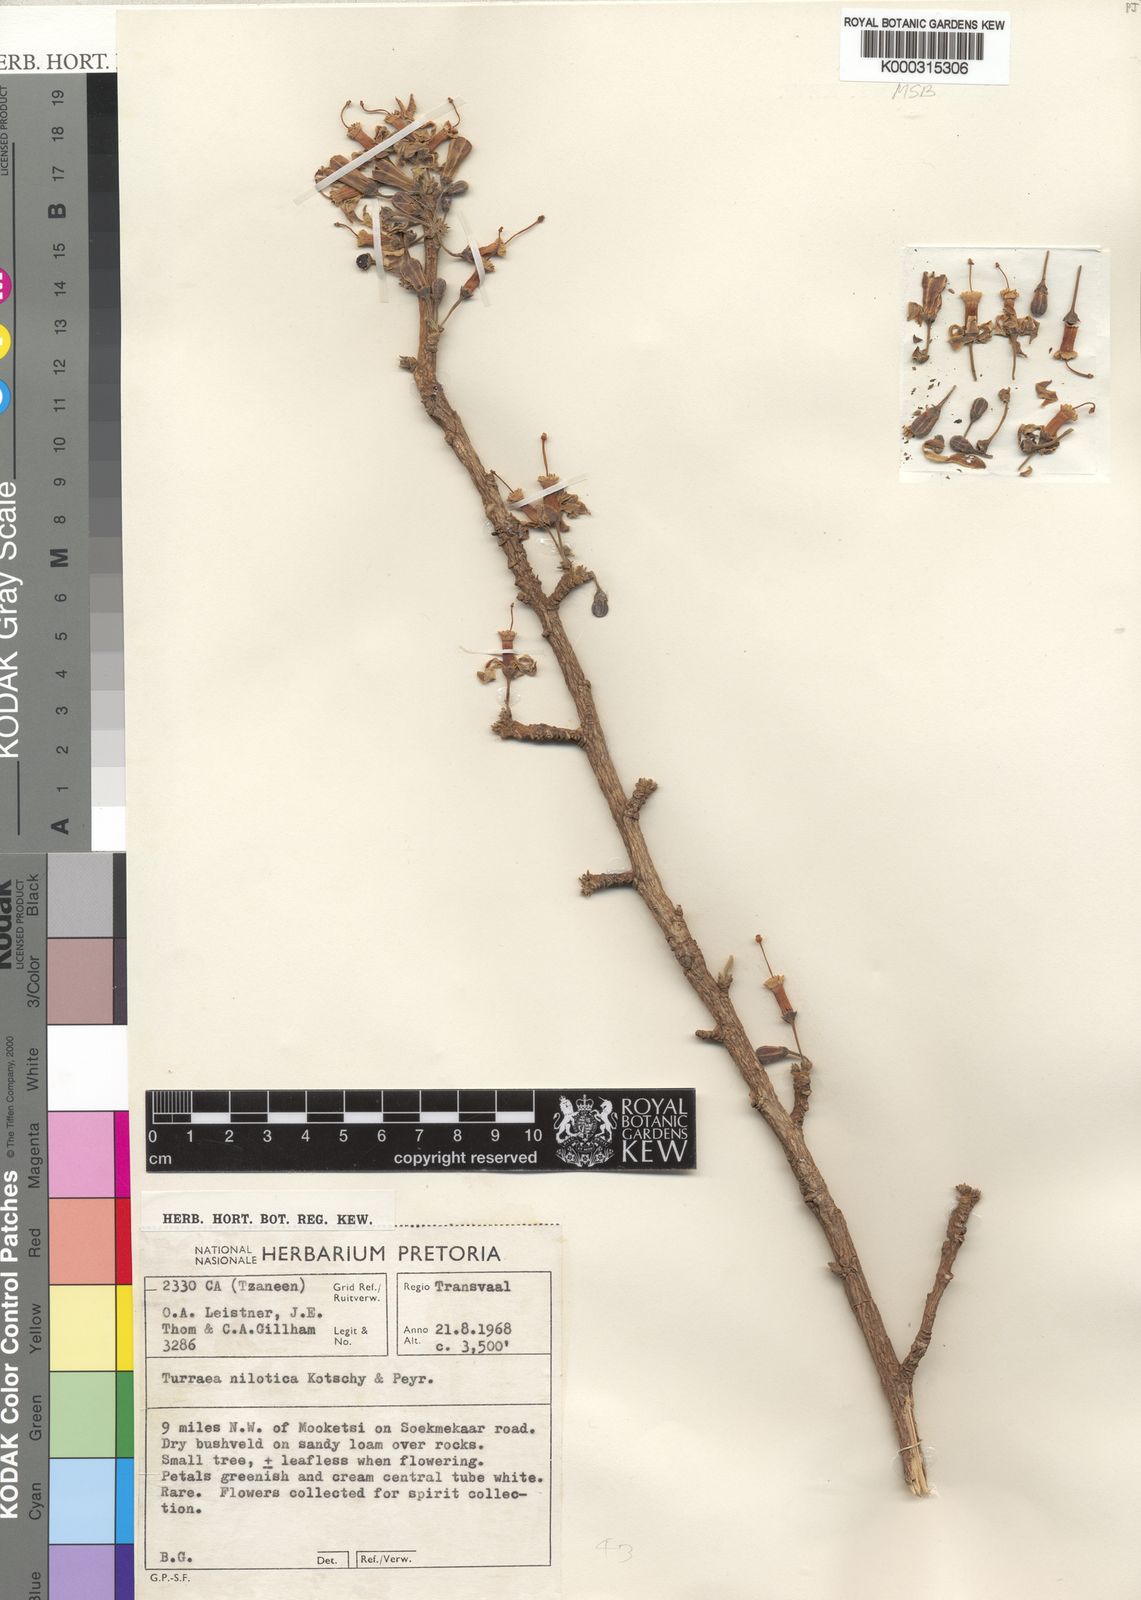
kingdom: Plantae
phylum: Tracheophyta
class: Magnoliopsida
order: Sapindales
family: Meliaceae
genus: Turraea
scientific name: Turraea nilotica
